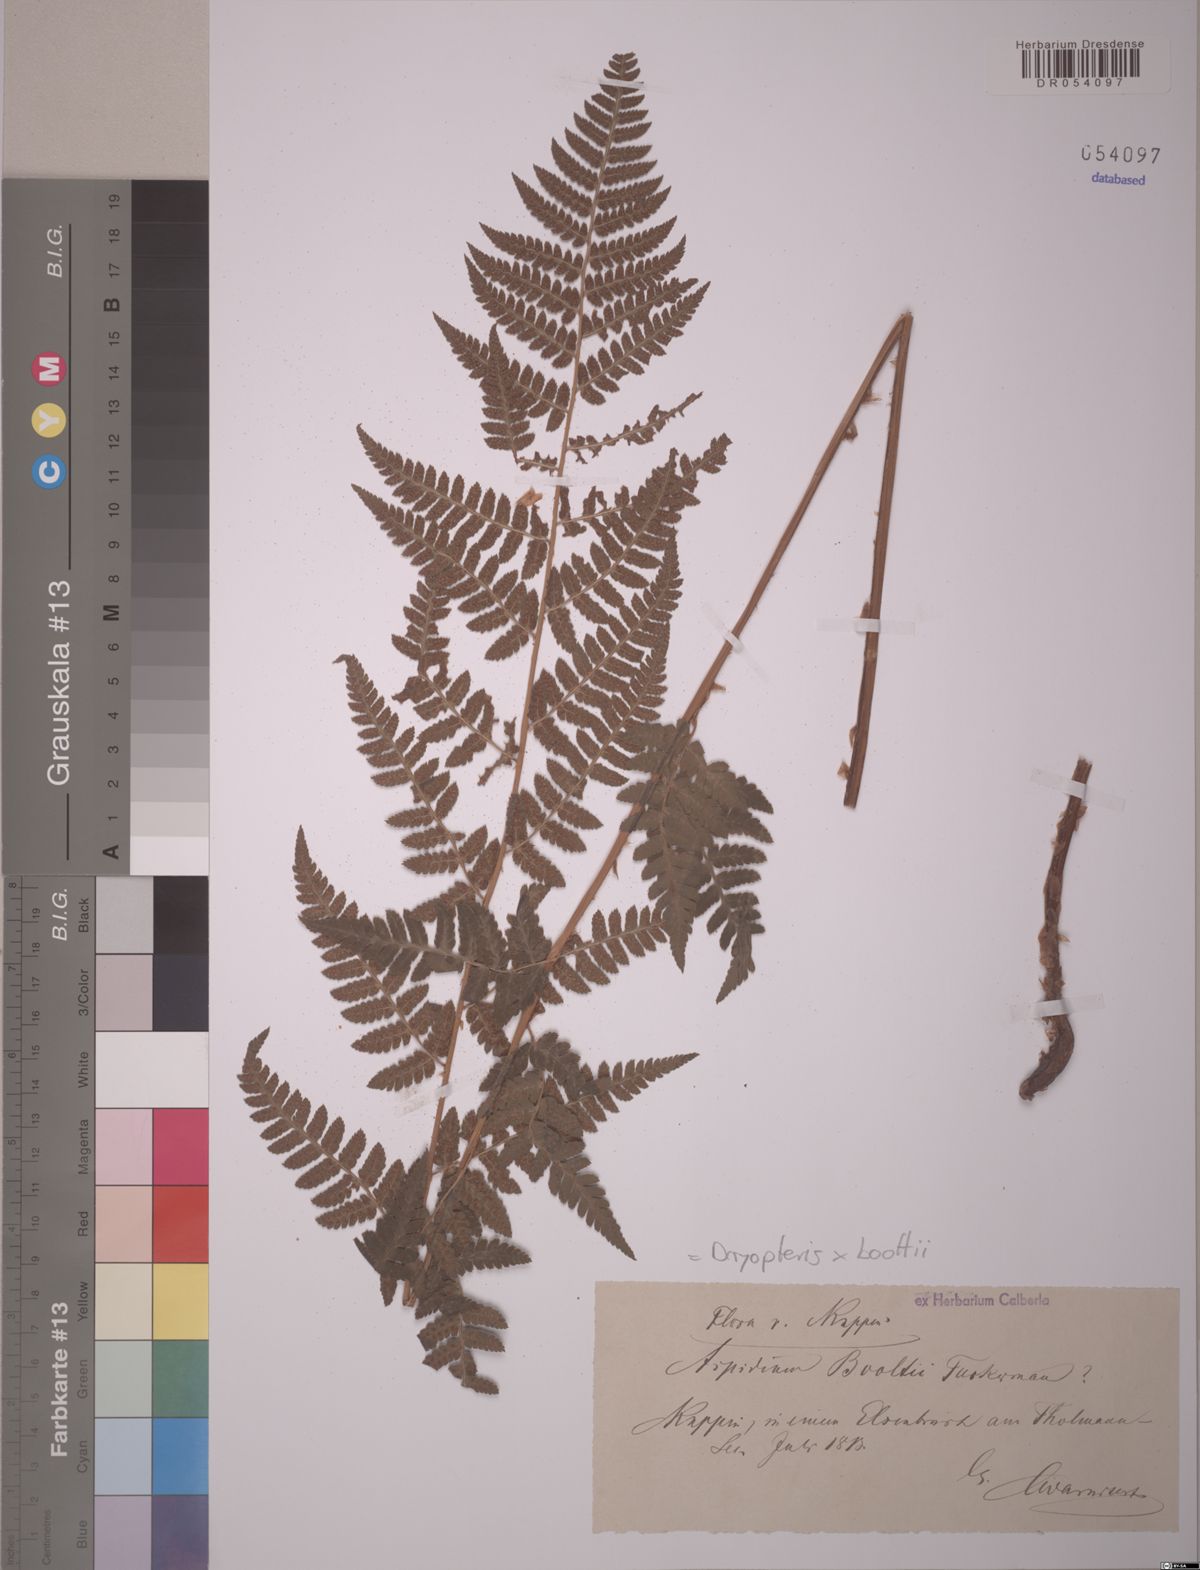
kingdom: Plantae
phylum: Tracheophyta
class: Polypodiopsida
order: Polypodiales
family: Dryopteridaceae
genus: Dryopteris
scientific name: Dryopteris boottii
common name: Boott's fern
